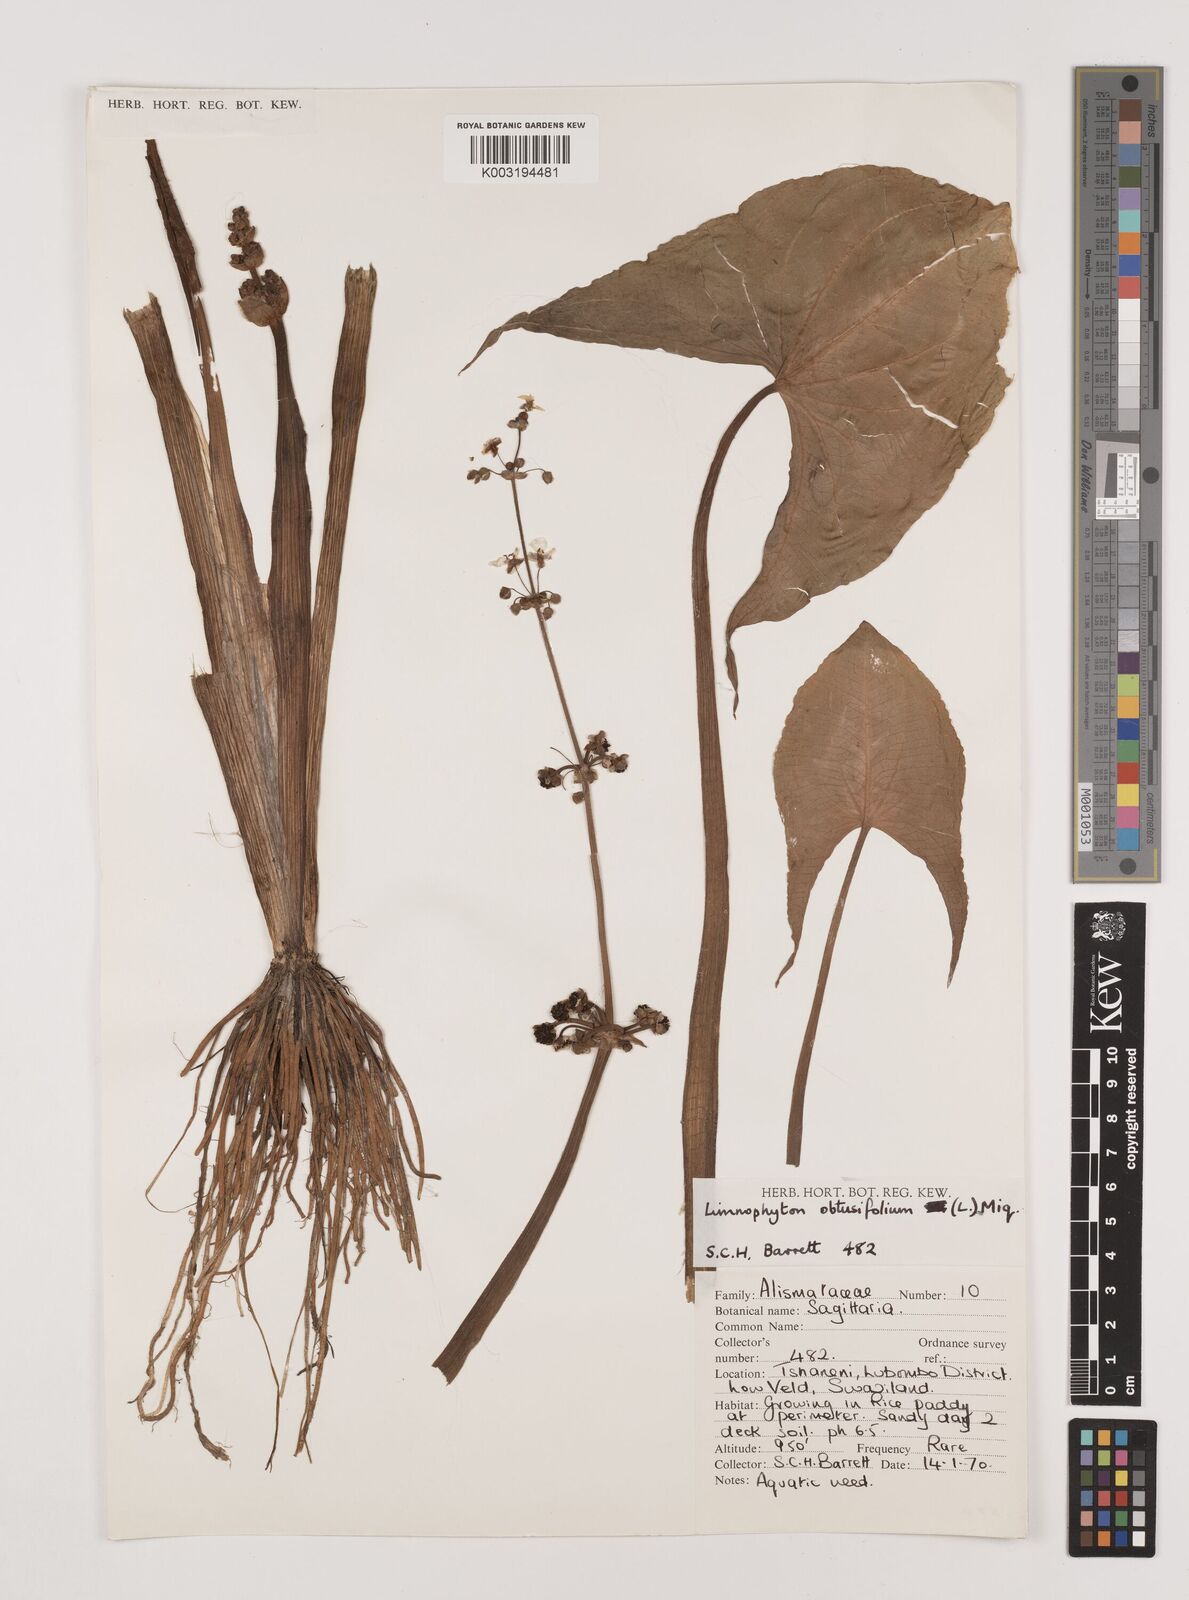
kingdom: Plantae
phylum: Tracheophyta
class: Liliopsida
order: Alismatales
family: Alismataceae
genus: Limnophyton
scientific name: Limnophyton obtusifolium
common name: Arrow head
